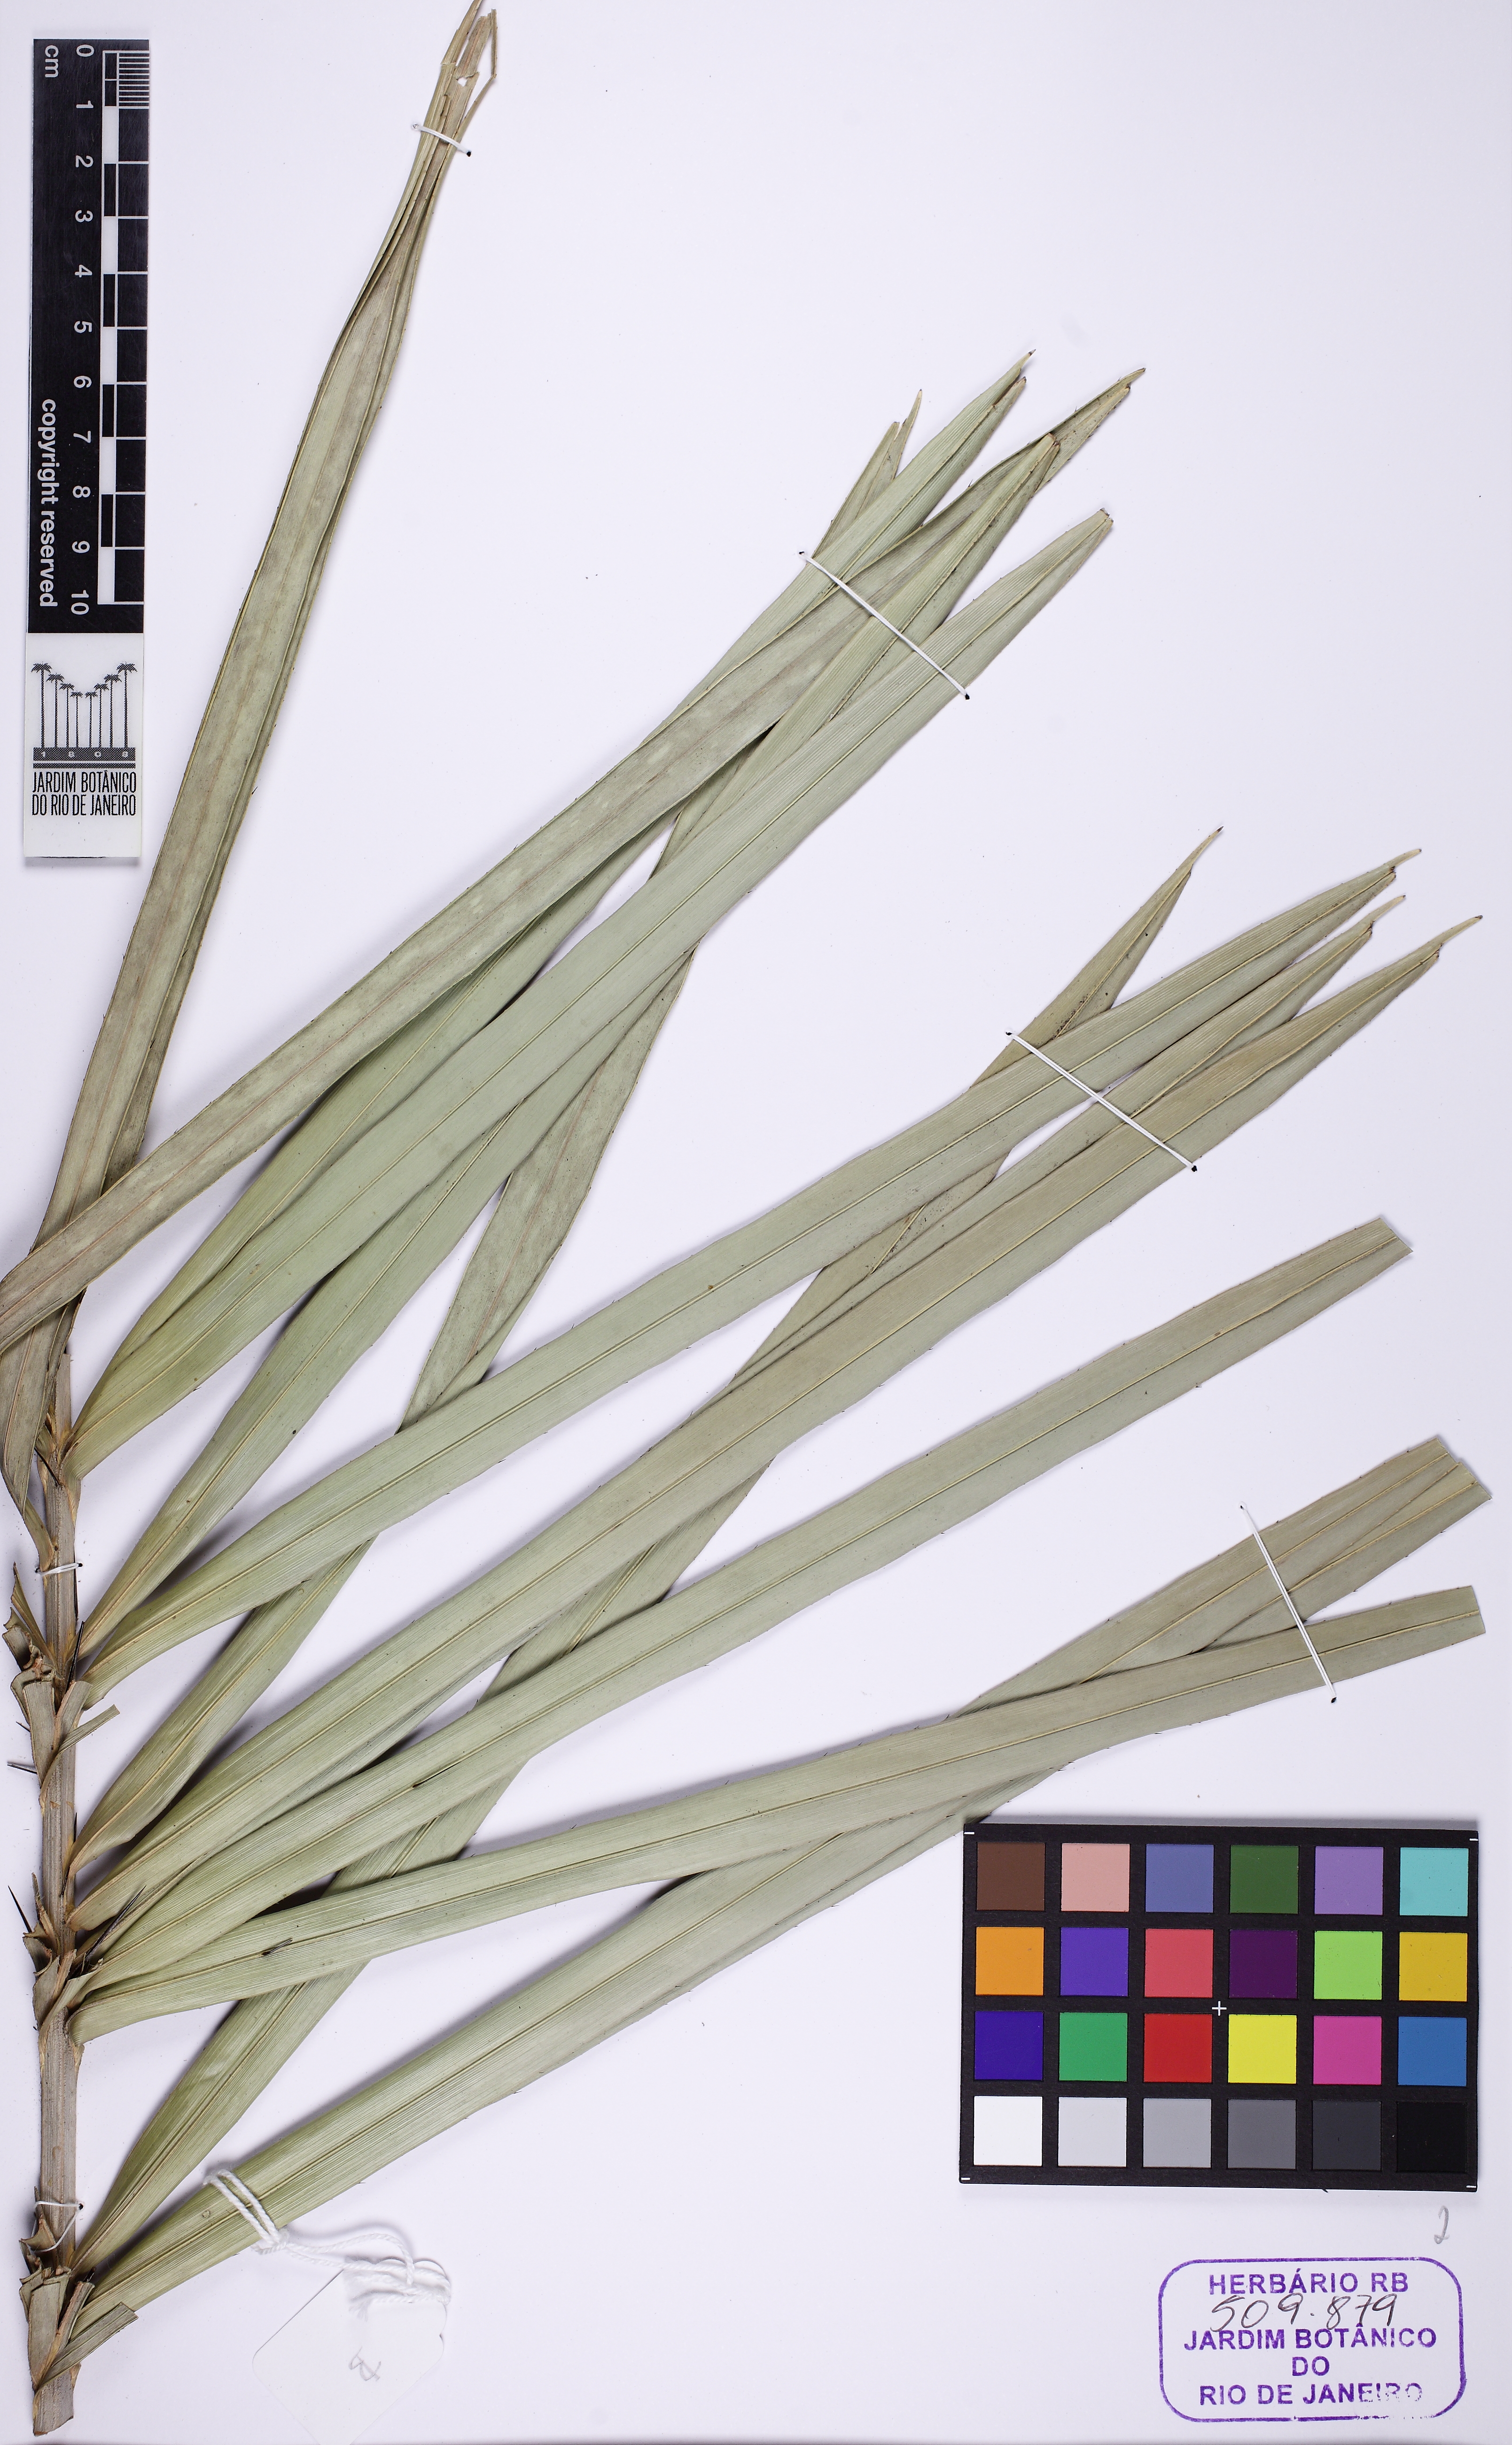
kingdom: Plantae
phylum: Tracheophyta
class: Liliopsida
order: Arecales
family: Arecaceae
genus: Astrocaryum
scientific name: Astrocaryum
